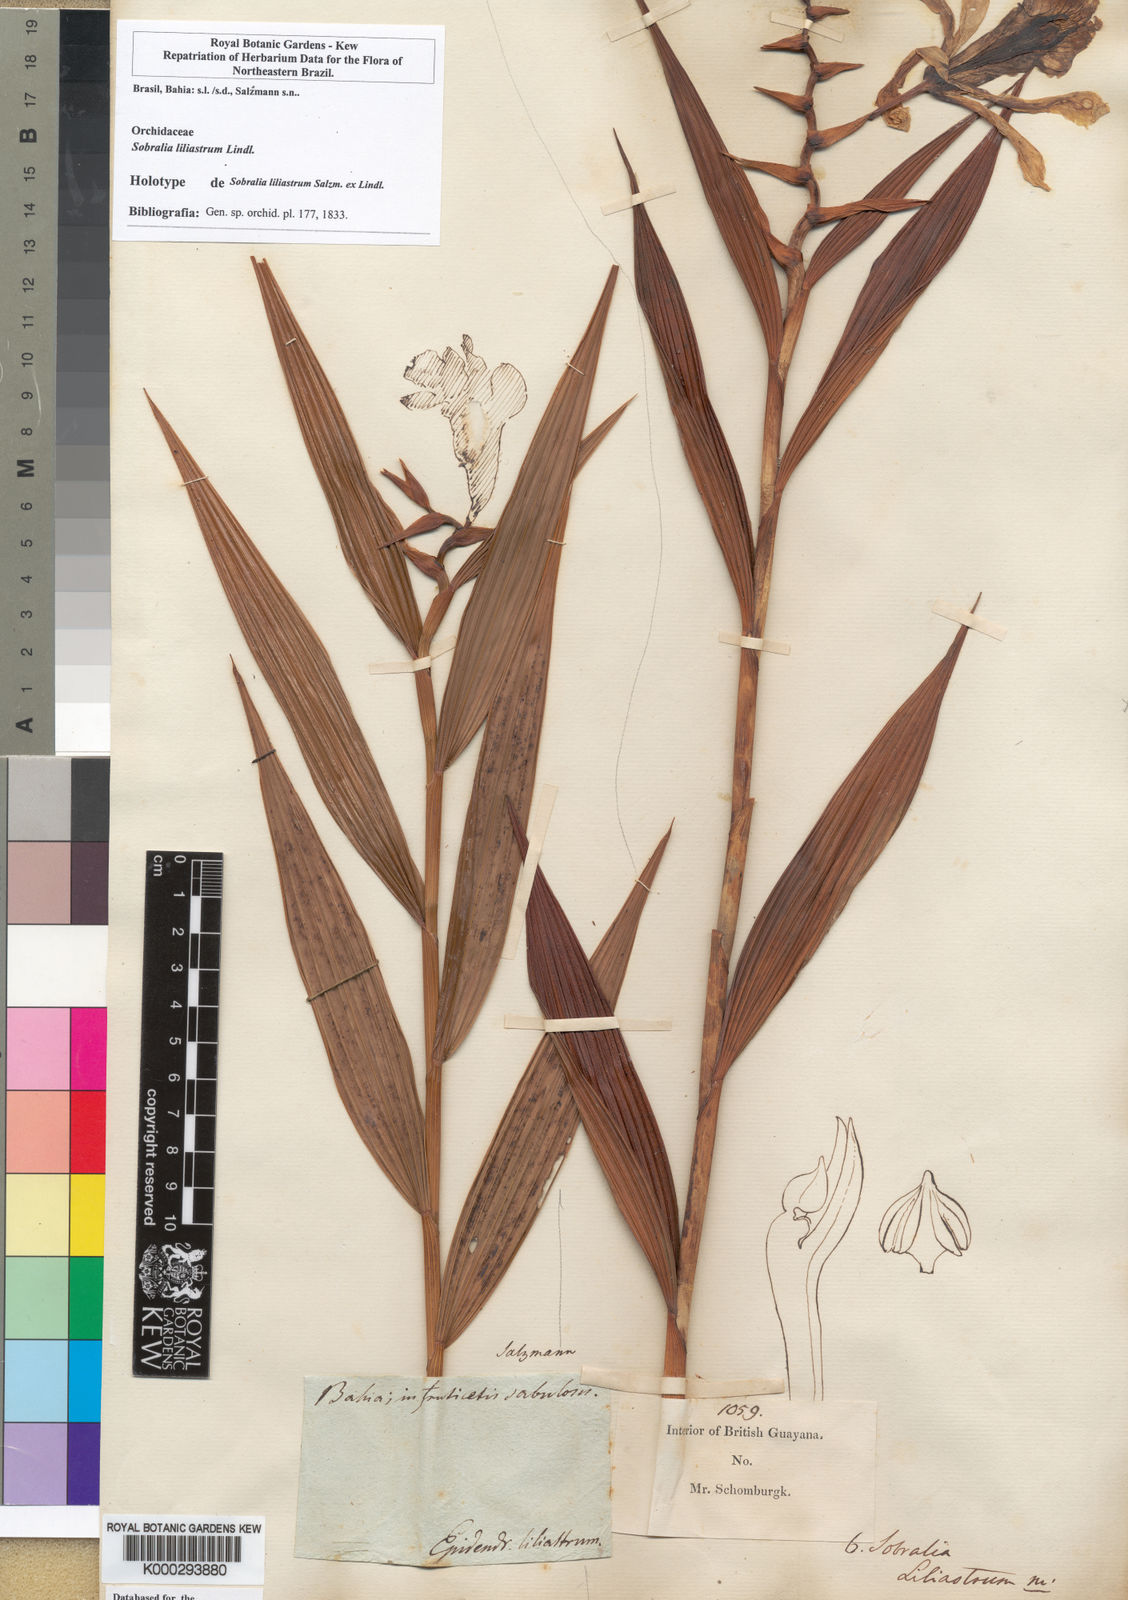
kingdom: Plantae
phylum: Tracheophyta
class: Liliopsida
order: Asparagales
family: Orchidaceae
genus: Sobralia
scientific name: Sobralia liliastrum
